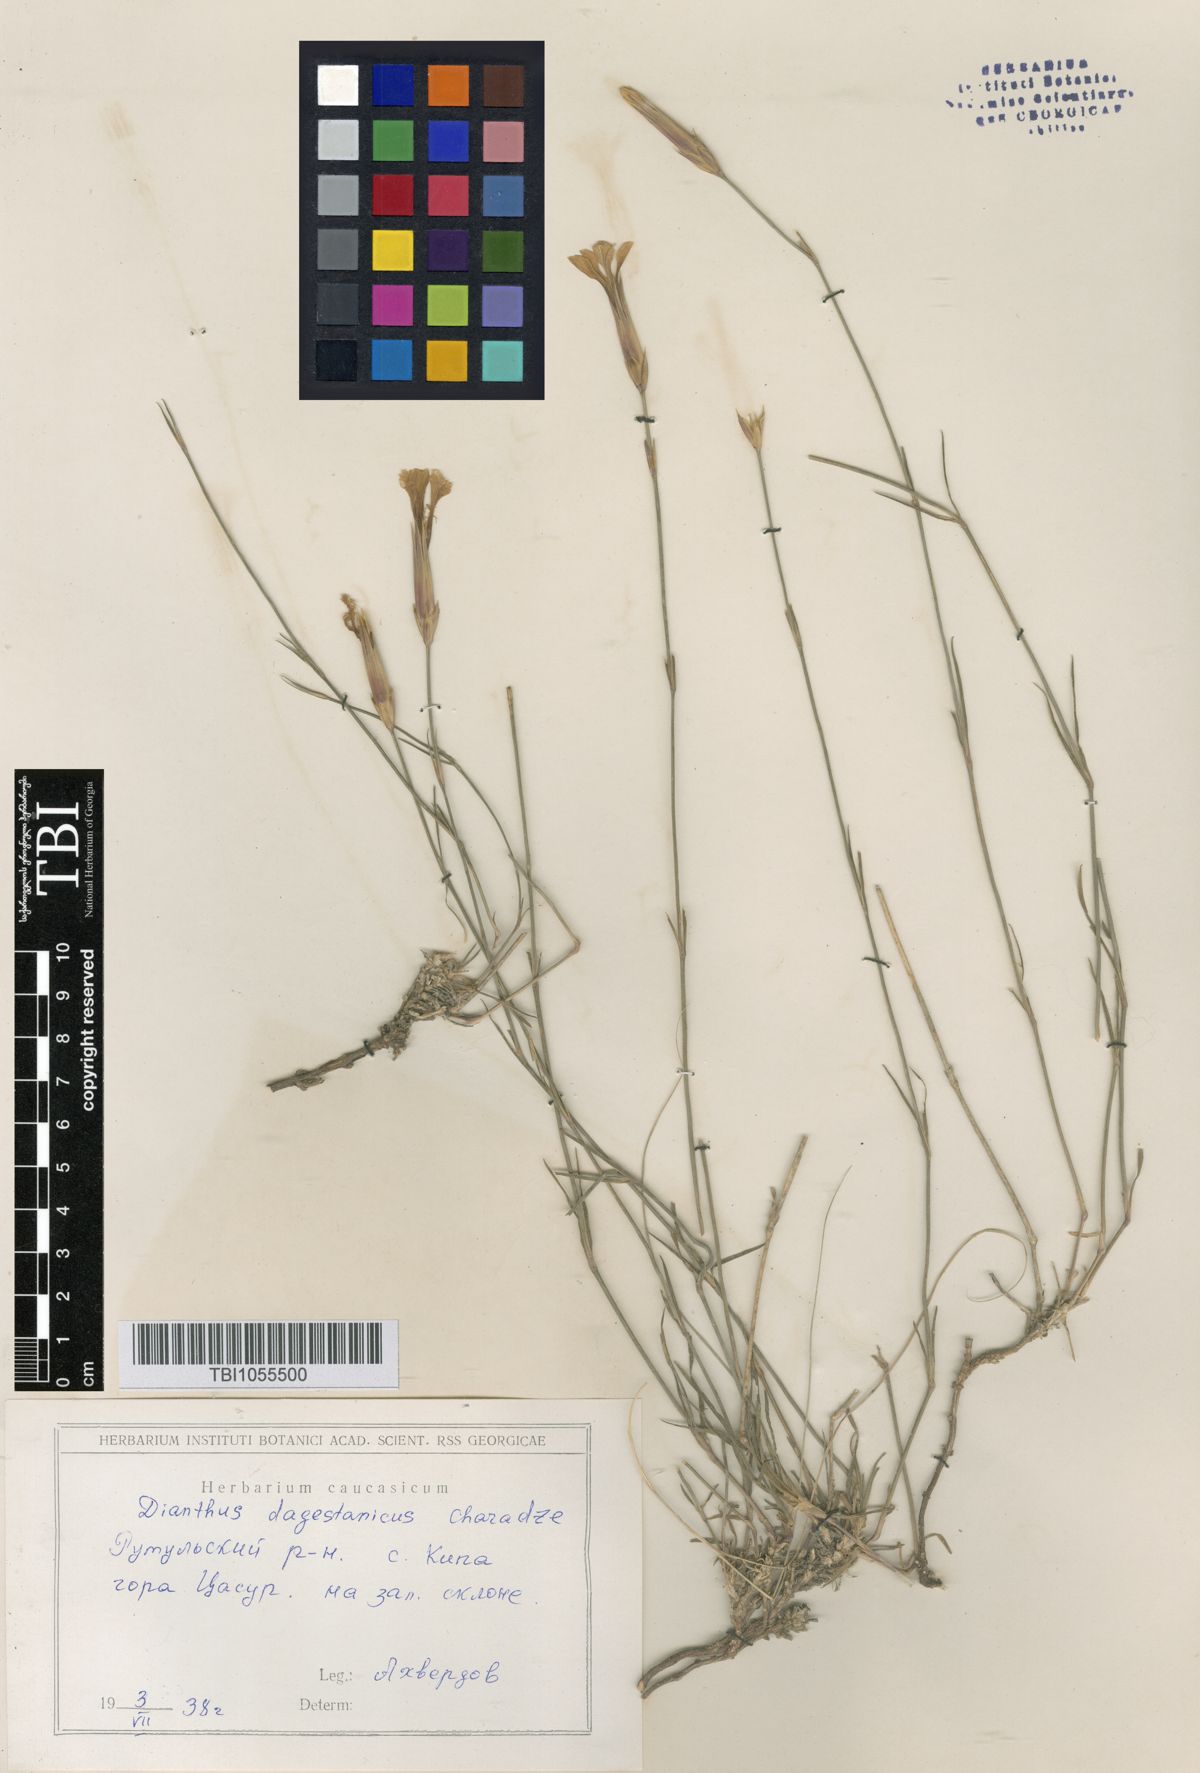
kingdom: Plantae
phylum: Tracheophyta
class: Magnoliopsida
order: Caryophyllales
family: Caryophyllaceae
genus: Dianthus
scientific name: Dianthus daghestanicus
